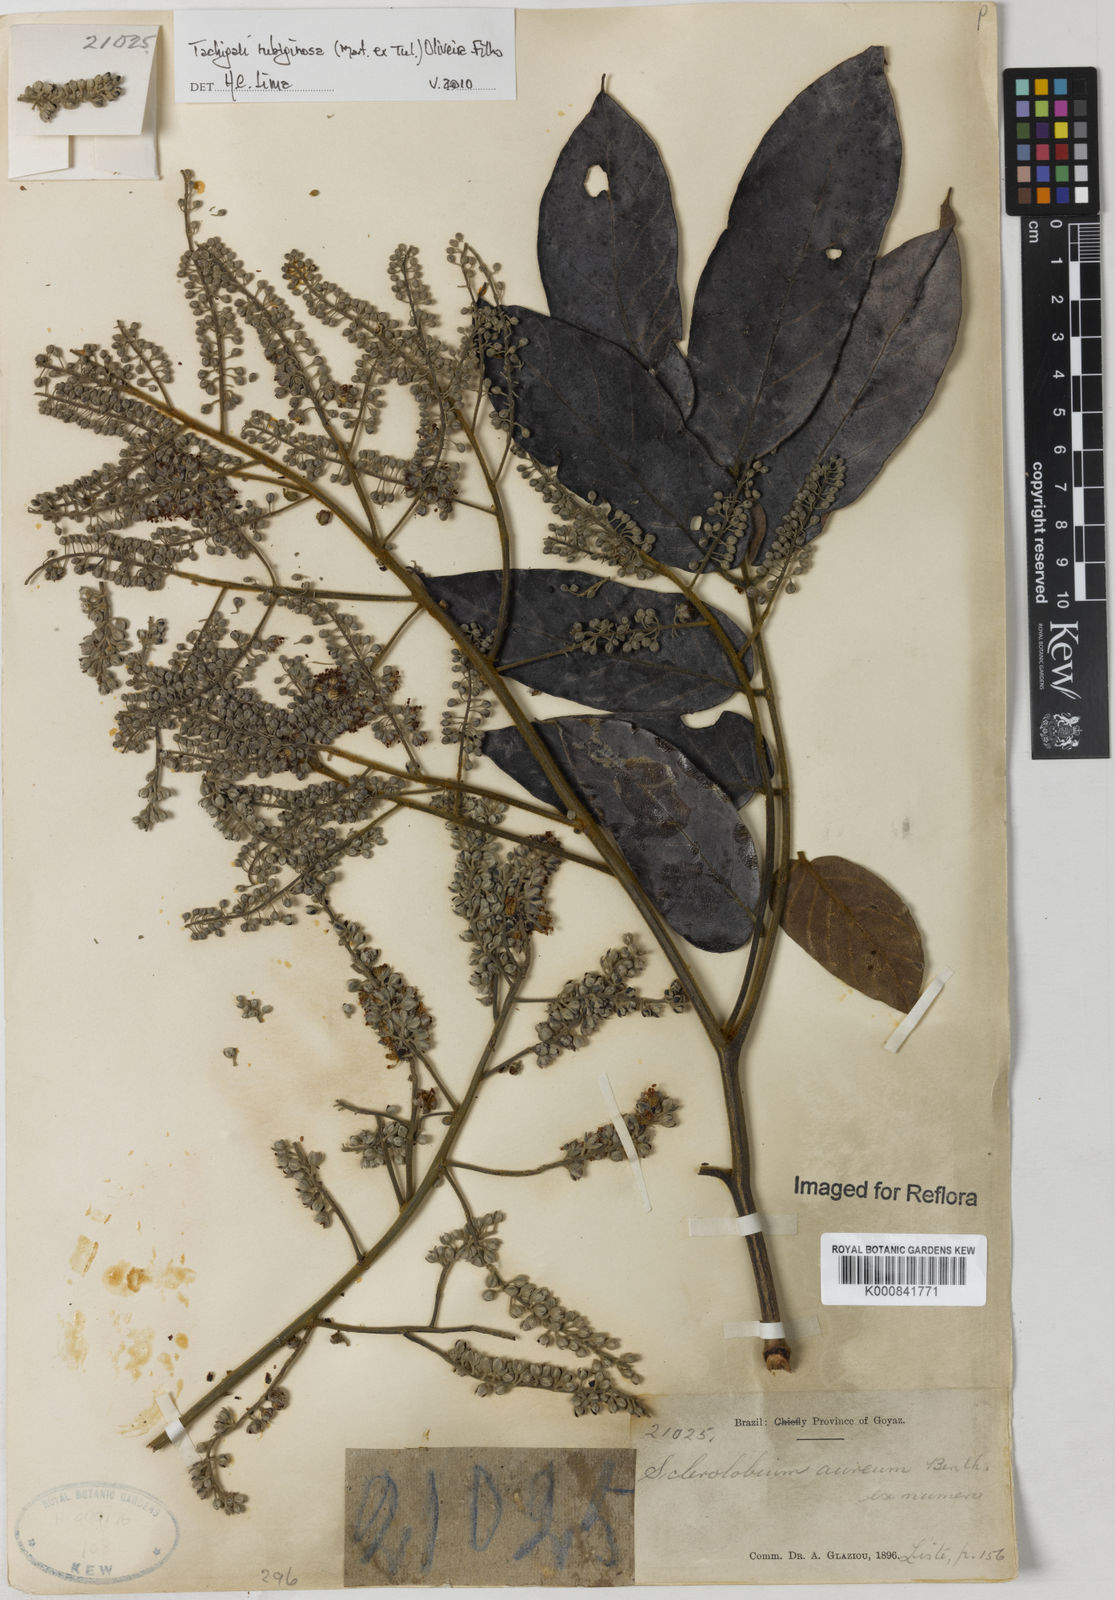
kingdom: Plantae
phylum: Tracheophyta
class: Magnoliopsida
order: Fabales
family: Fabaceae
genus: Tachigali
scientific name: Tachigali rubiginosa
